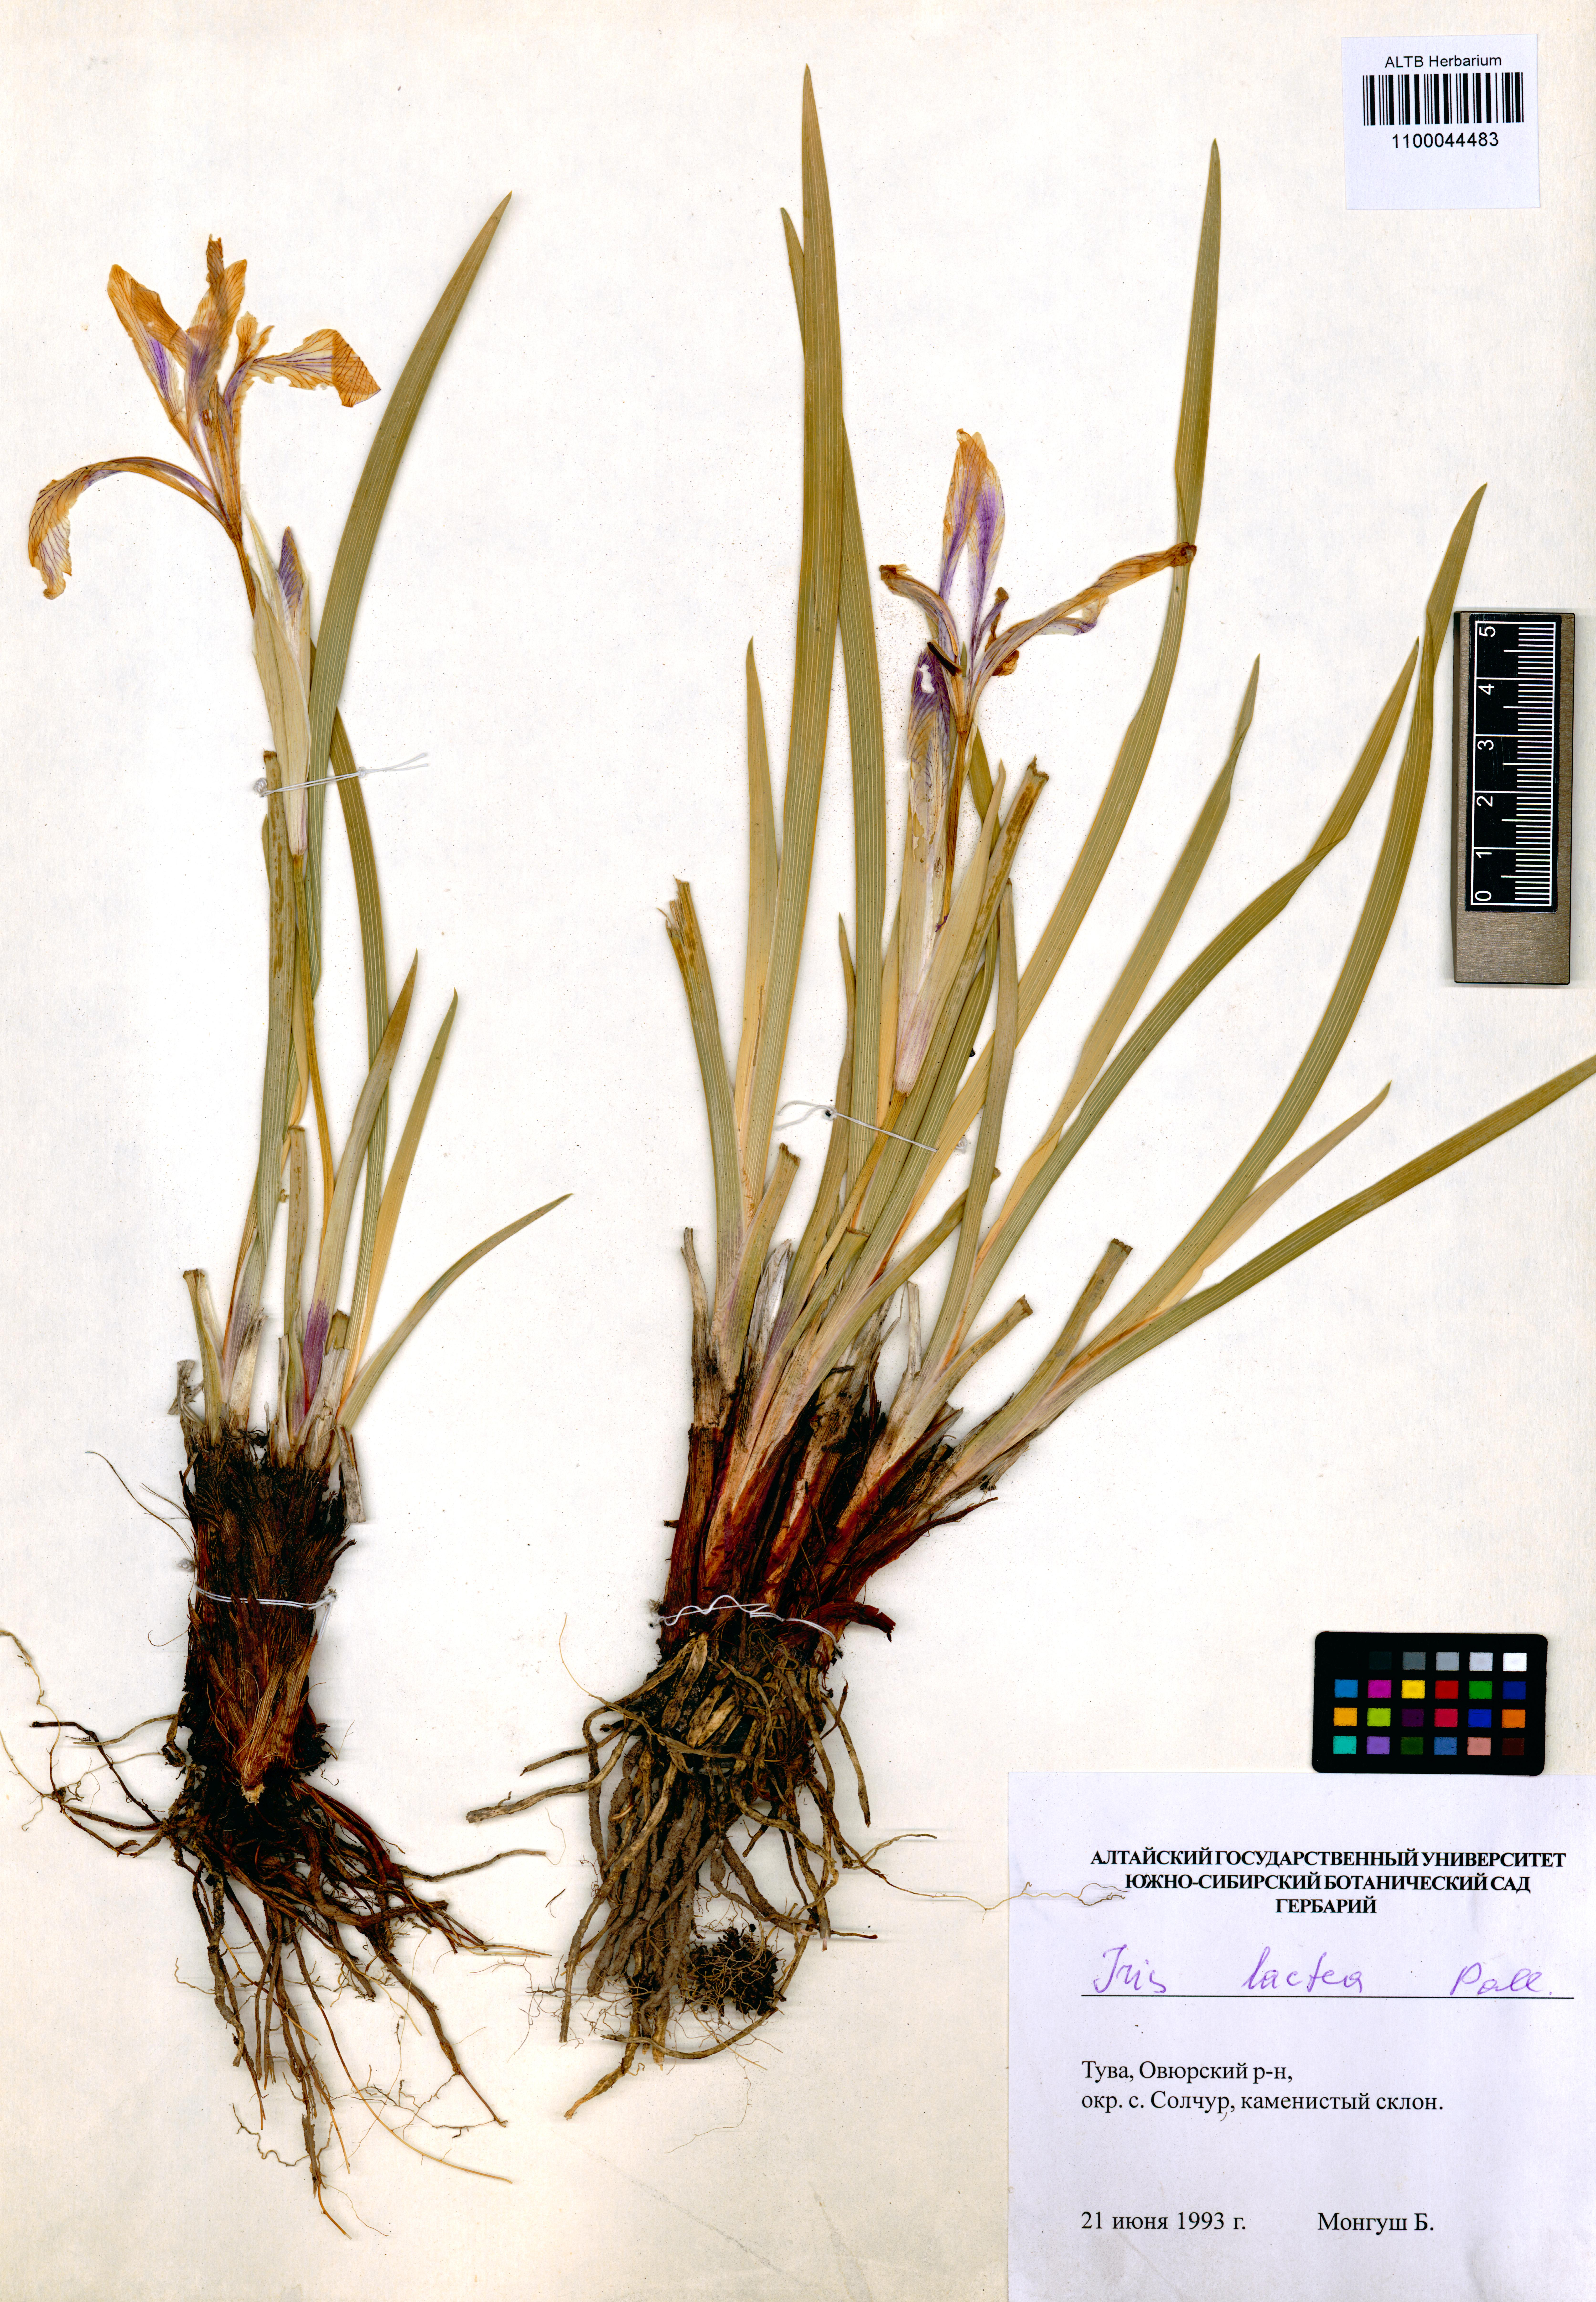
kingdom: Plantae
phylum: Tracheophyta
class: Liliopsida
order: Asparagales
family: Iridaceae
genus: Iris
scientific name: Iris lactea
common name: White-flower chinese iris
